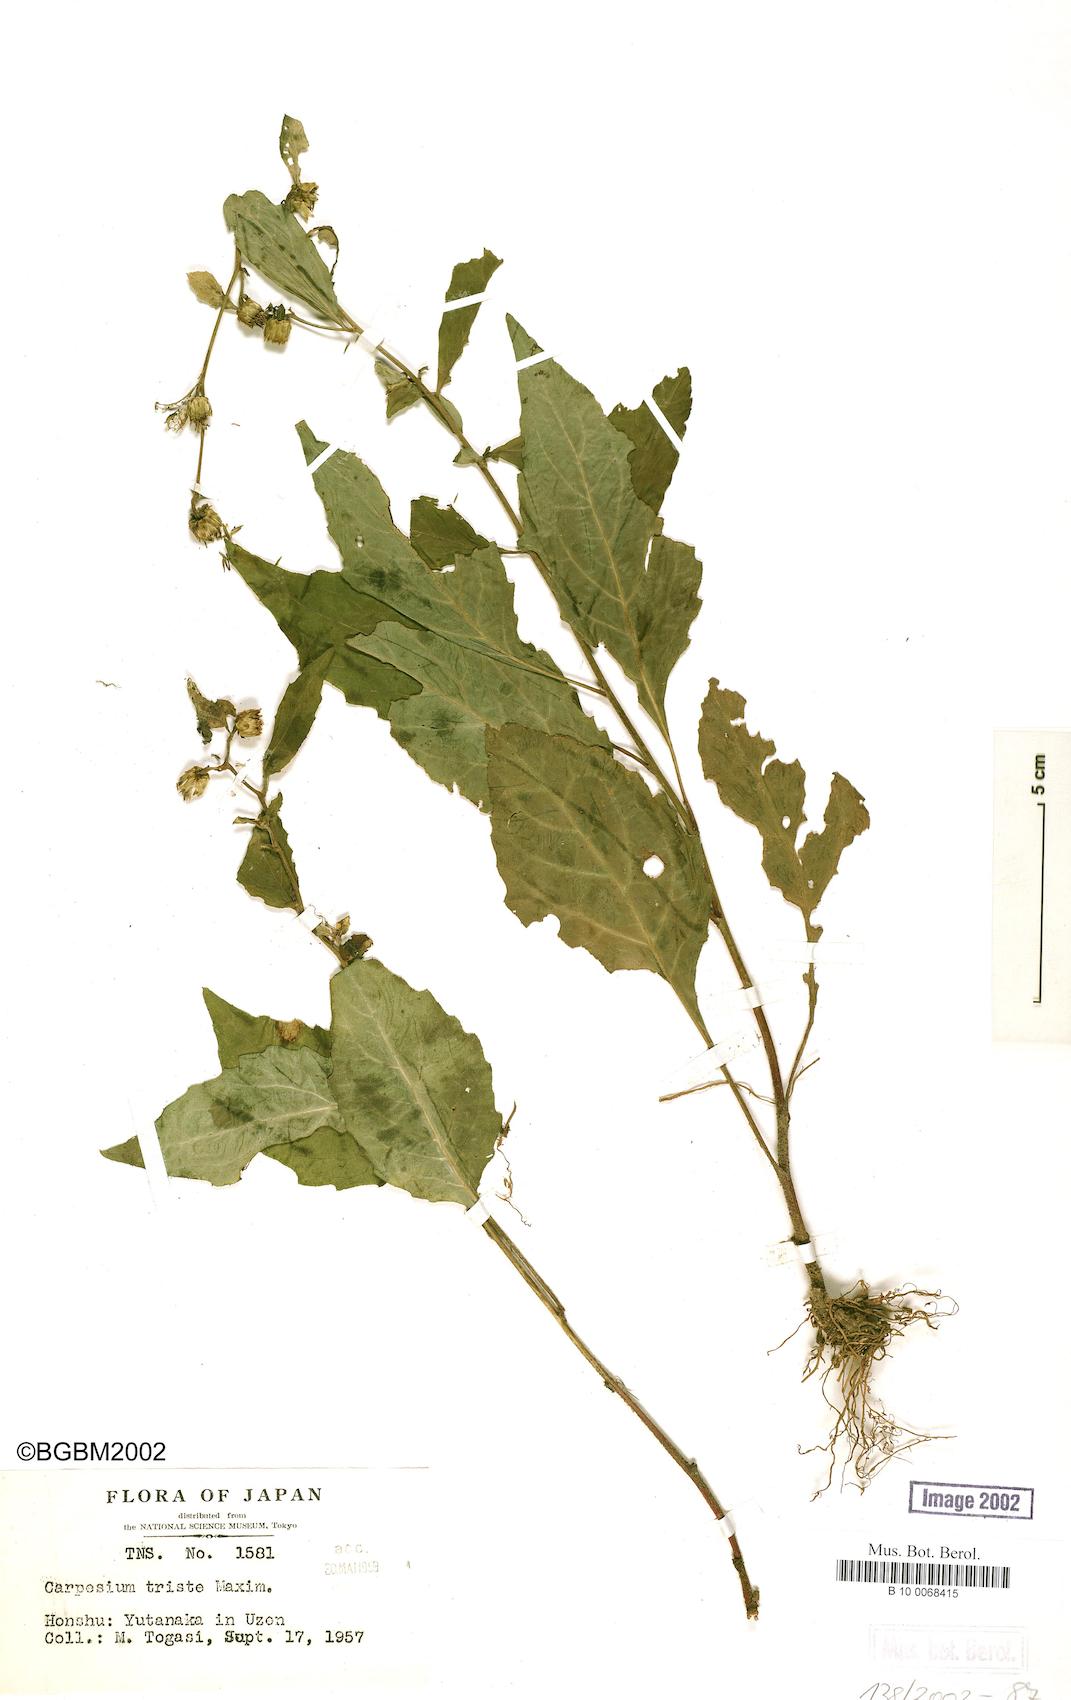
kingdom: Plantae
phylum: Tracheophyta
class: Magnoliopsida
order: Asterales
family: Asteraceae
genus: Carpesium
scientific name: Carpesium divaricatum
